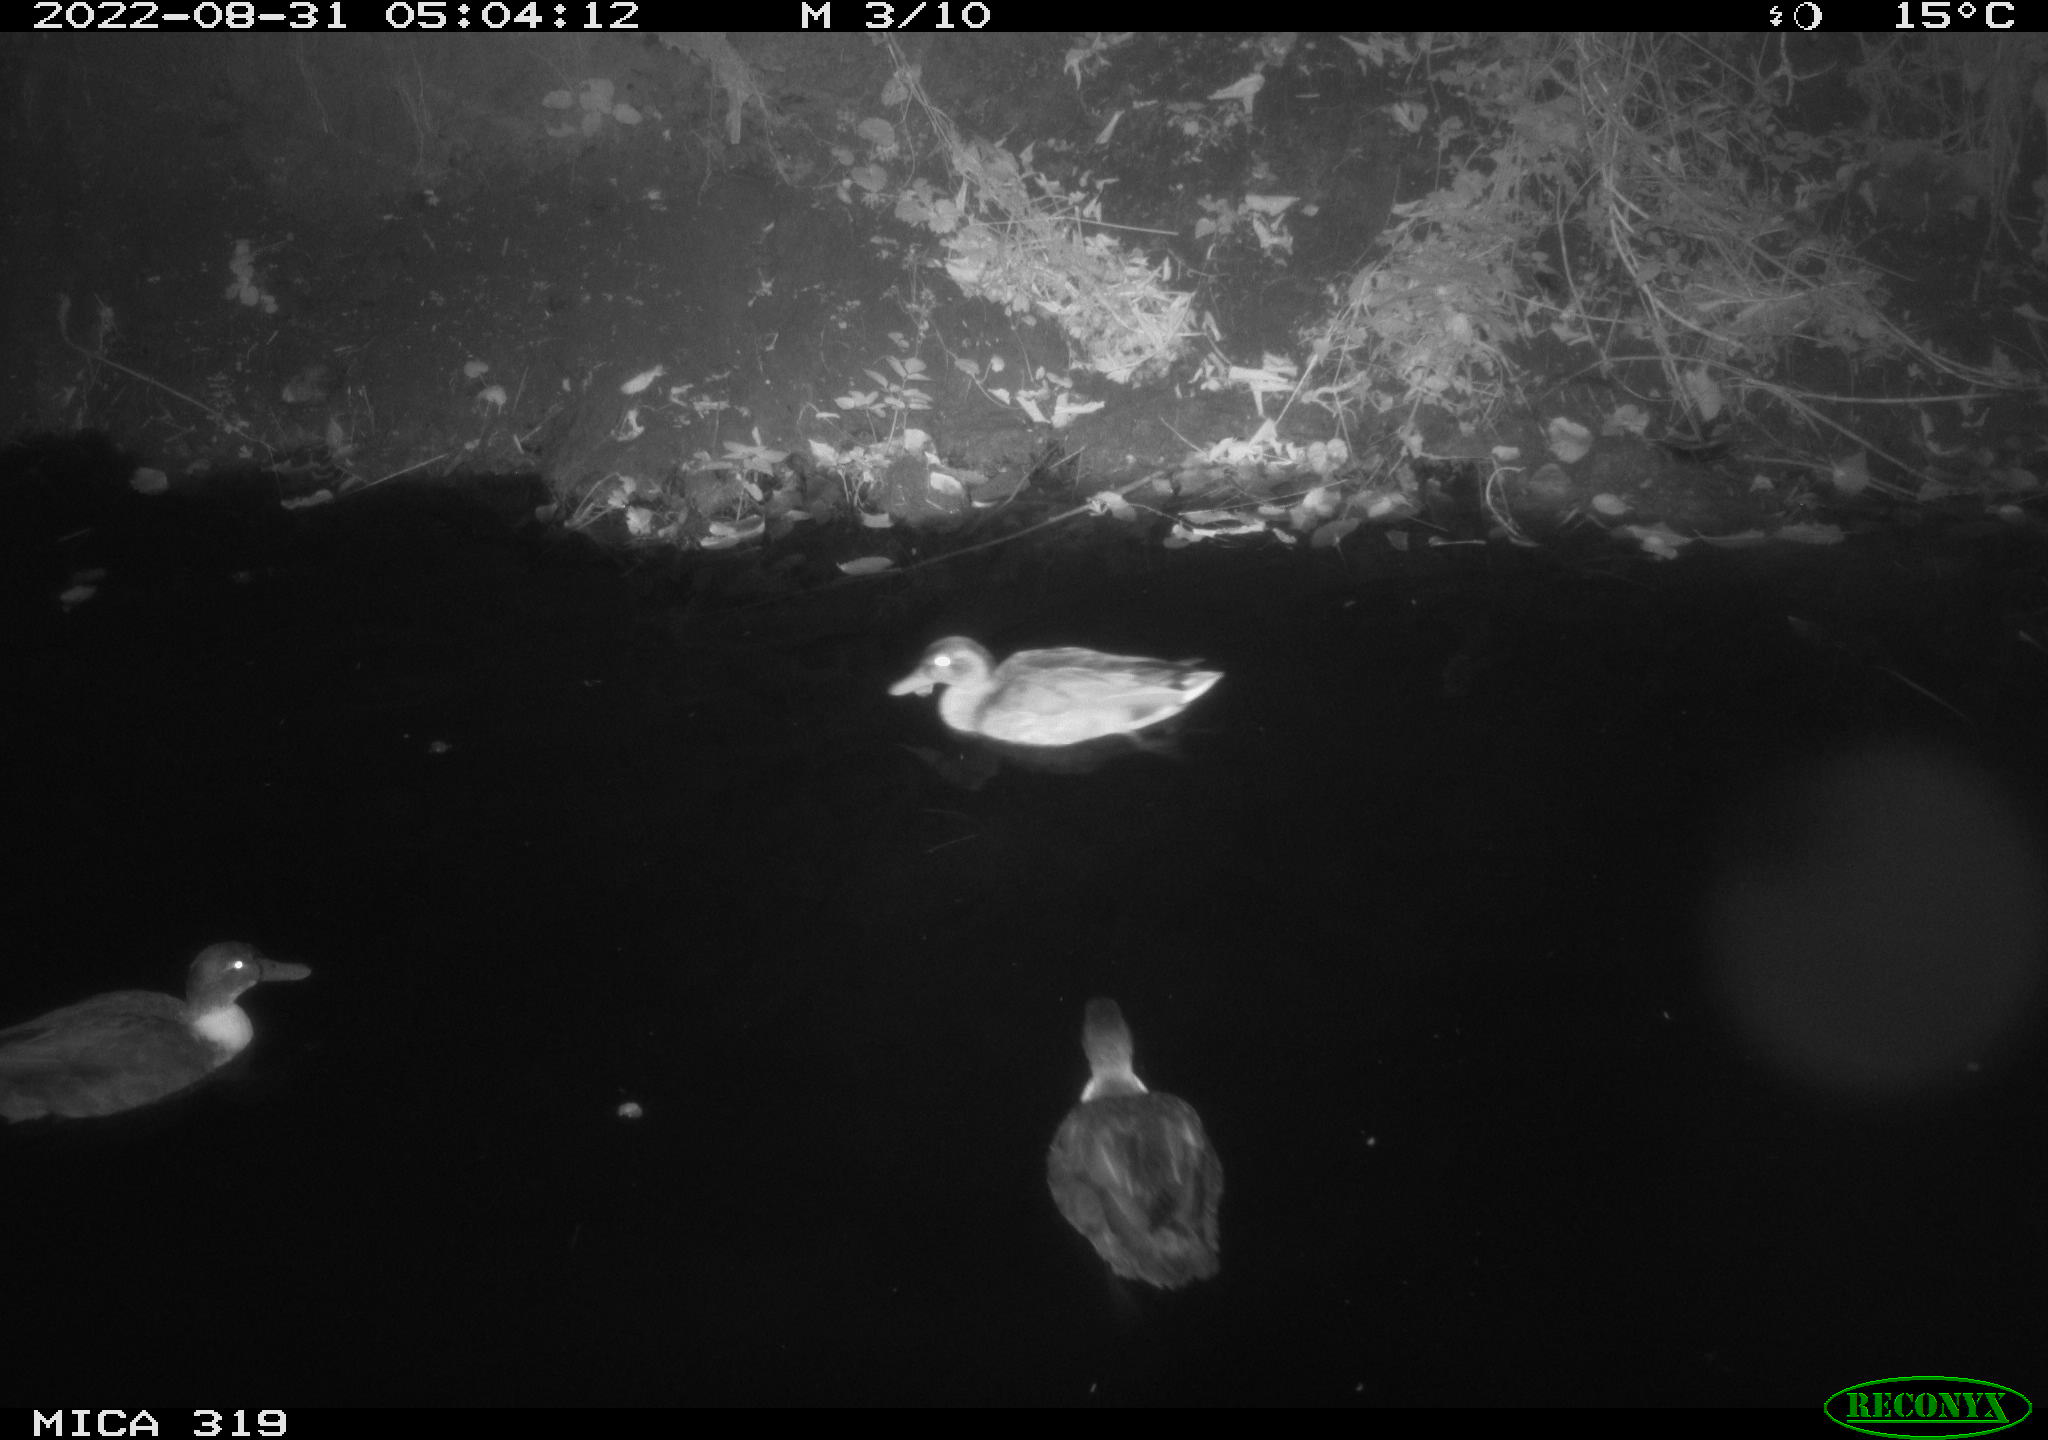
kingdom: Animalia
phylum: Chordata
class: Aves
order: Anseriformes
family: Anatidae
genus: Anas
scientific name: Anas
